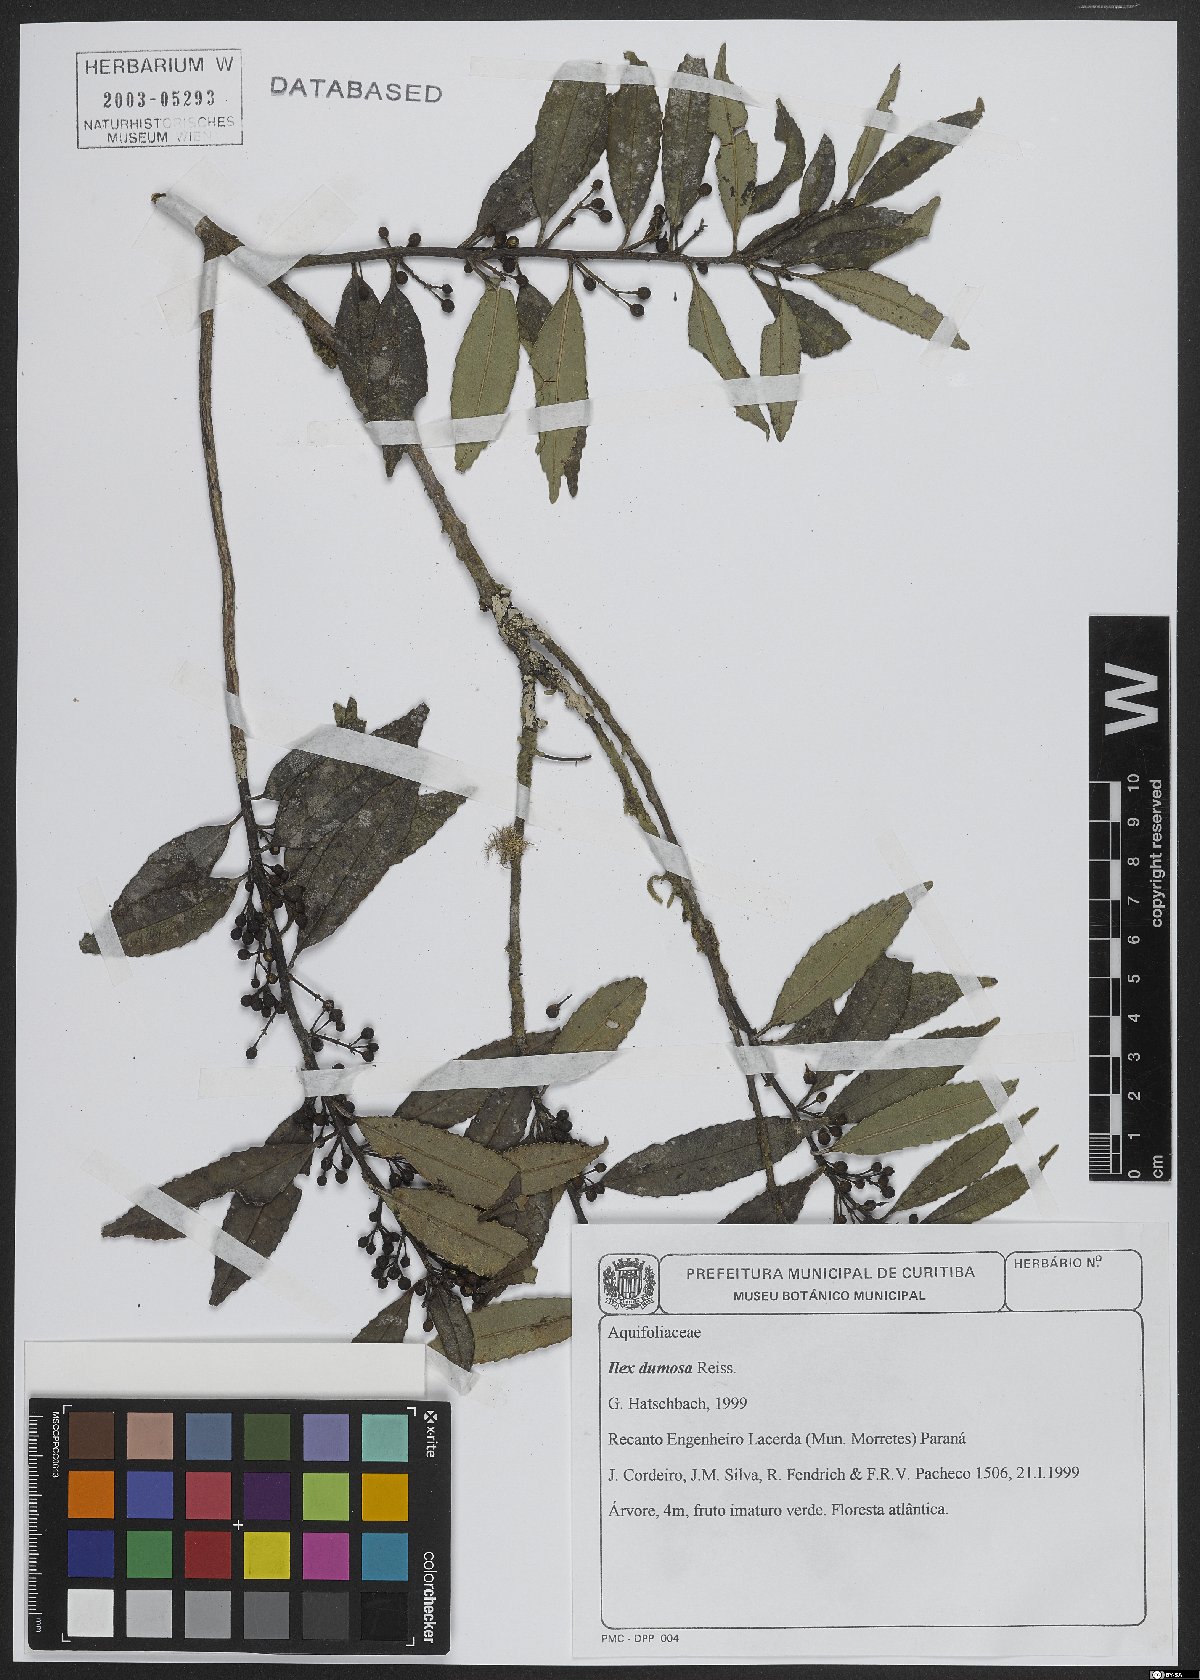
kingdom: Plantae
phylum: Tracheophyta
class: Magnoliopsida
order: Aquifoliales
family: Aquifoliaceae
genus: Ilex
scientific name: Ilex dumosa
